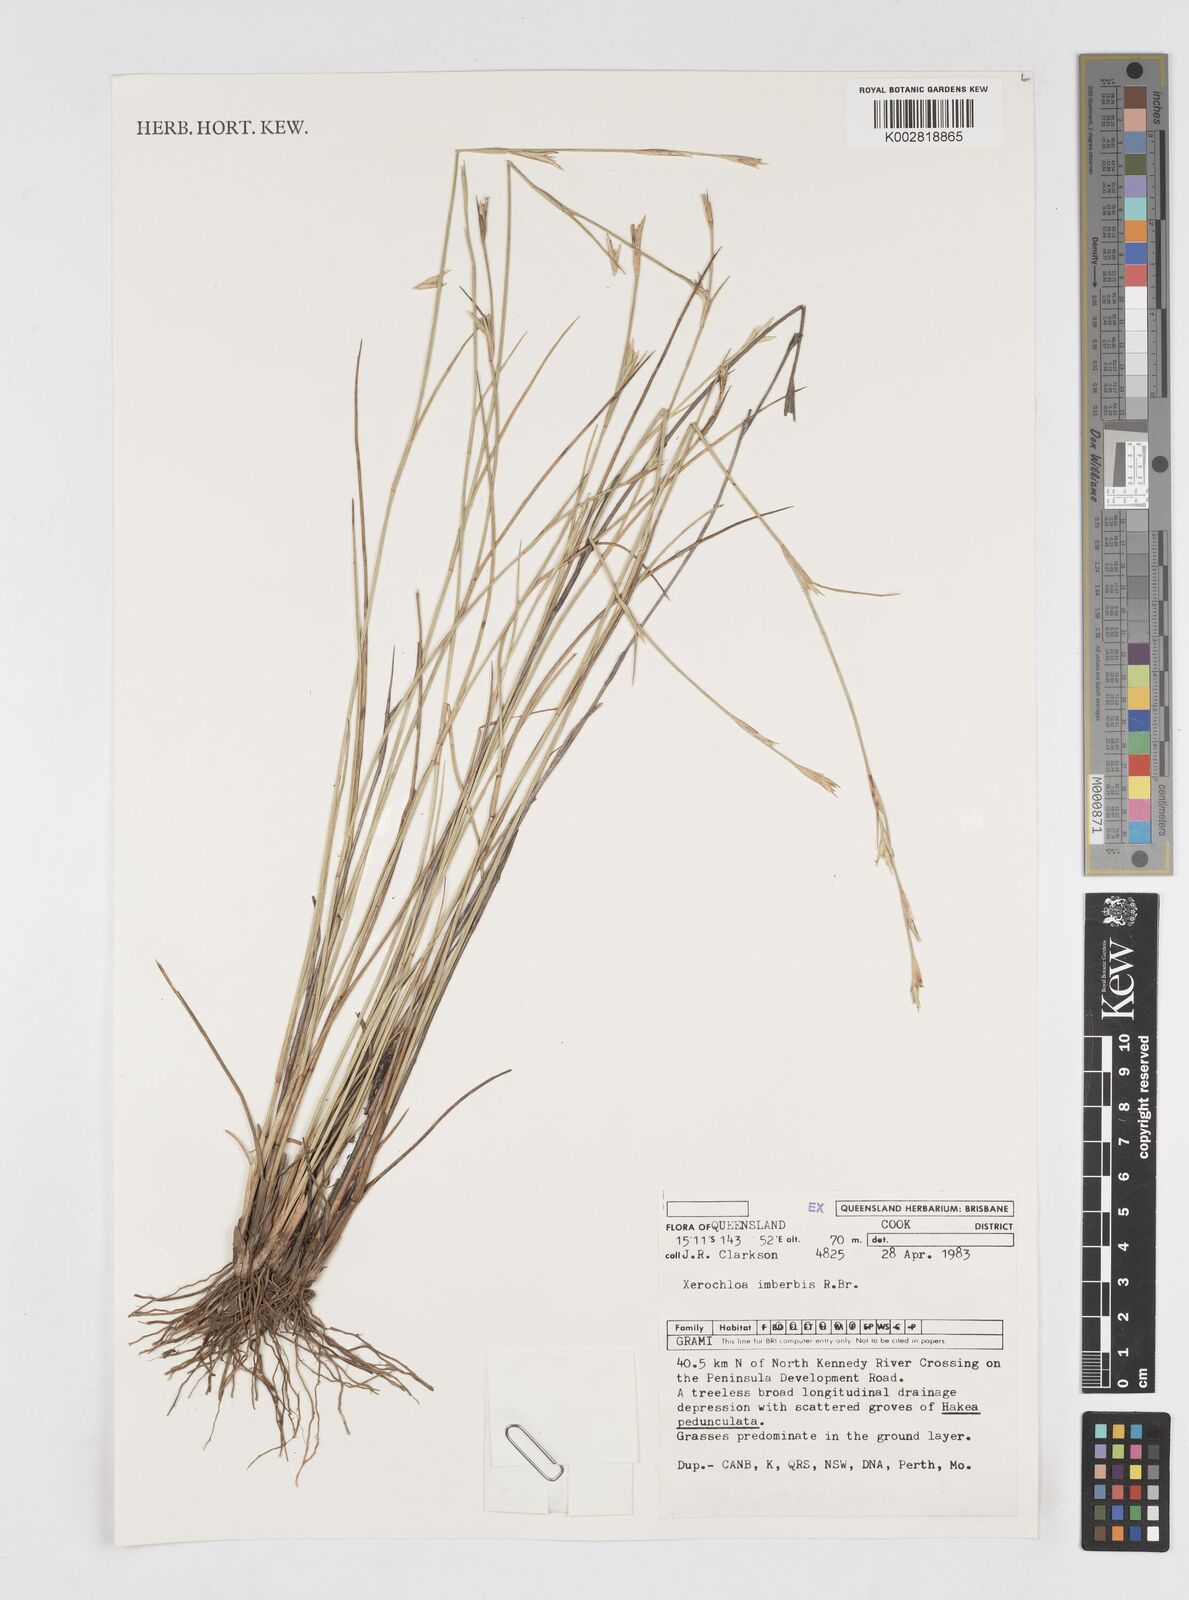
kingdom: Plantae
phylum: Tracheophyta
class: Liliopsida
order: Poales
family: Poaceae
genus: Xerochloa
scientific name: Xerochloa imberbis
